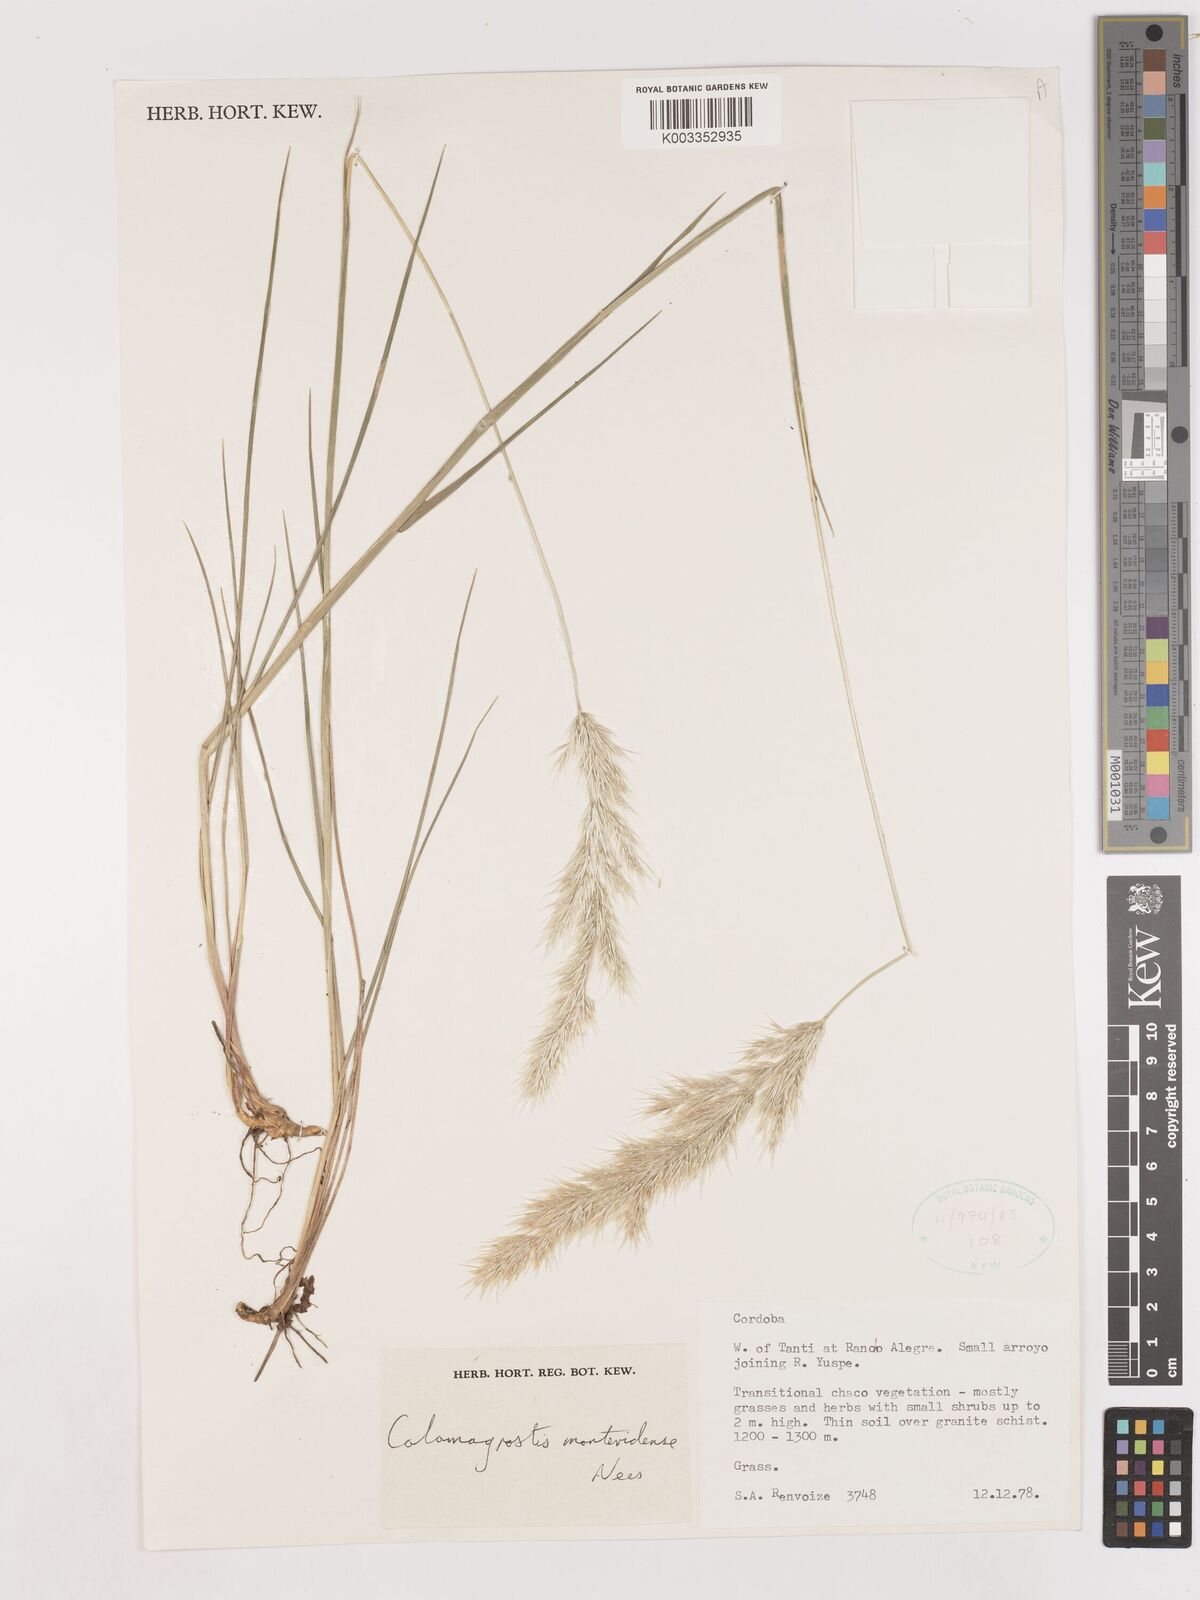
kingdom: Plantae
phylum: Tracheophyta
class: Liliopsida
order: Poales
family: Poaceae
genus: Cinnagrostis
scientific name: Cinnagrostis viridiflavescens
